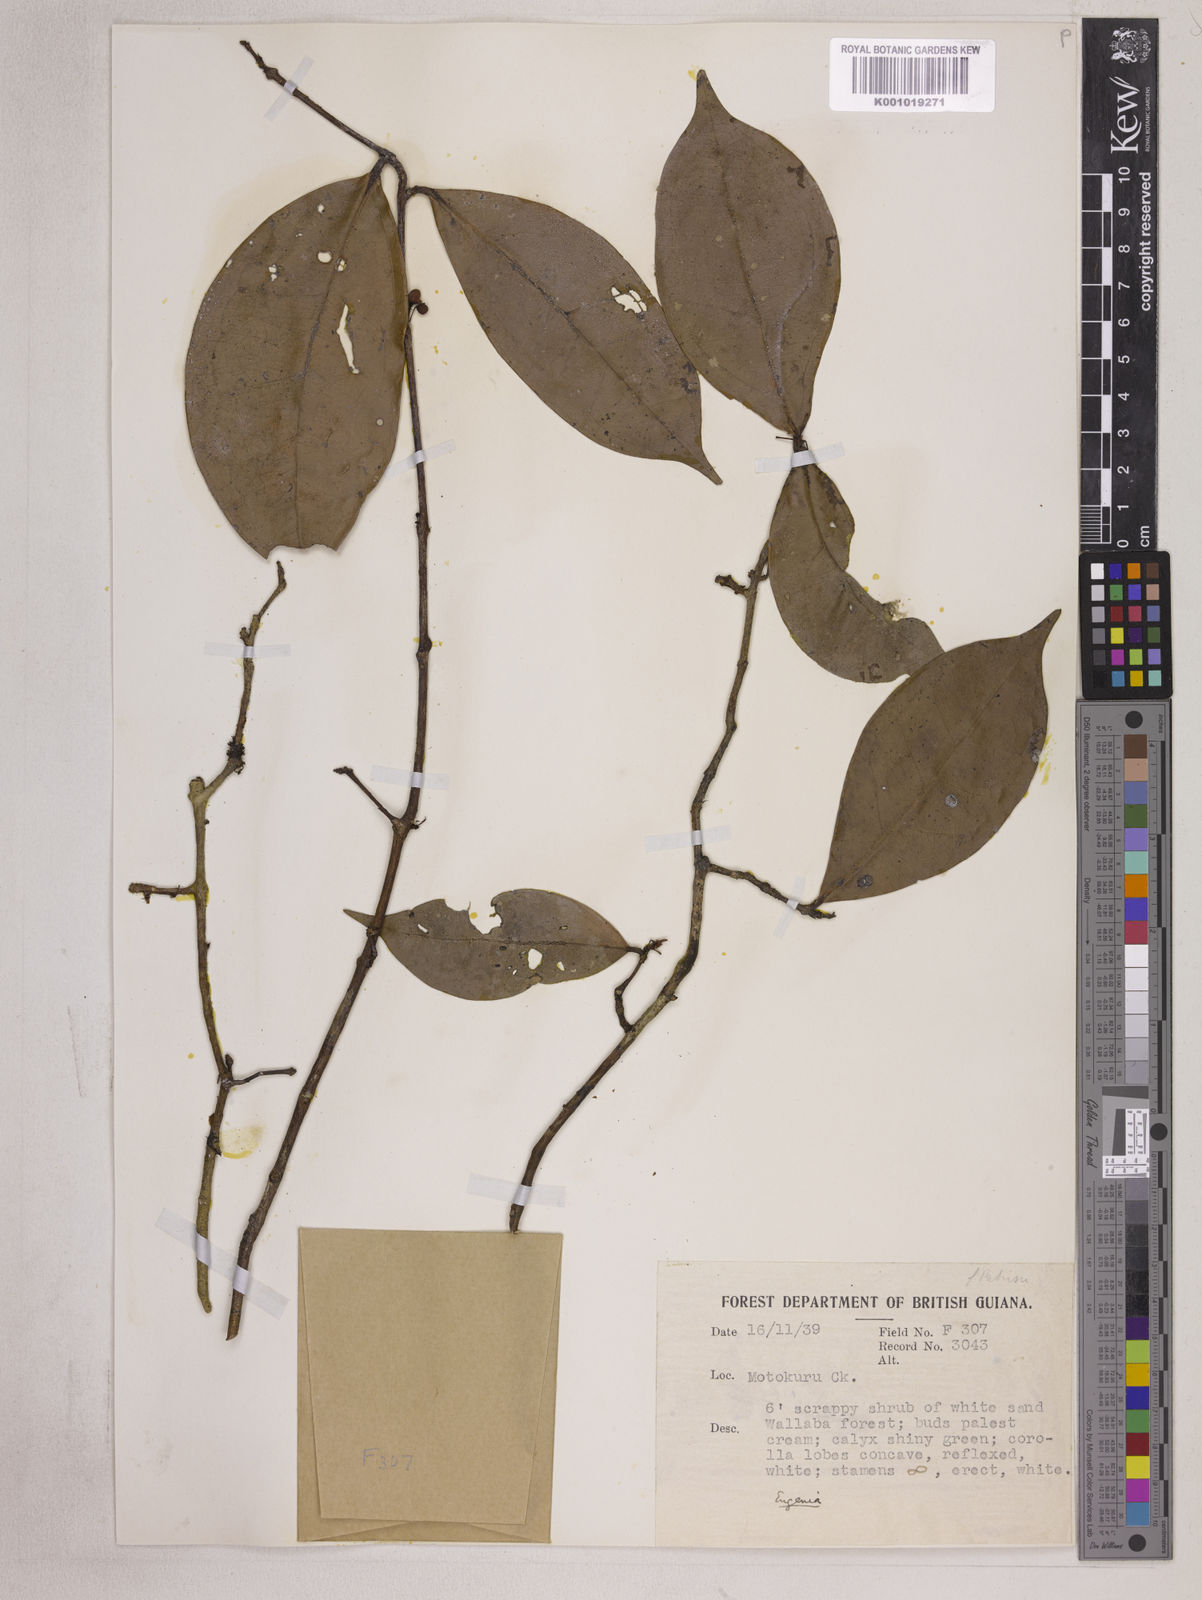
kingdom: Plantae
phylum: Tracheophyta
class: Magnoliopsida
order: Myrtales
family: Myrtaceae
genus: Eugenia
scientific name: Eugenia patrisii
